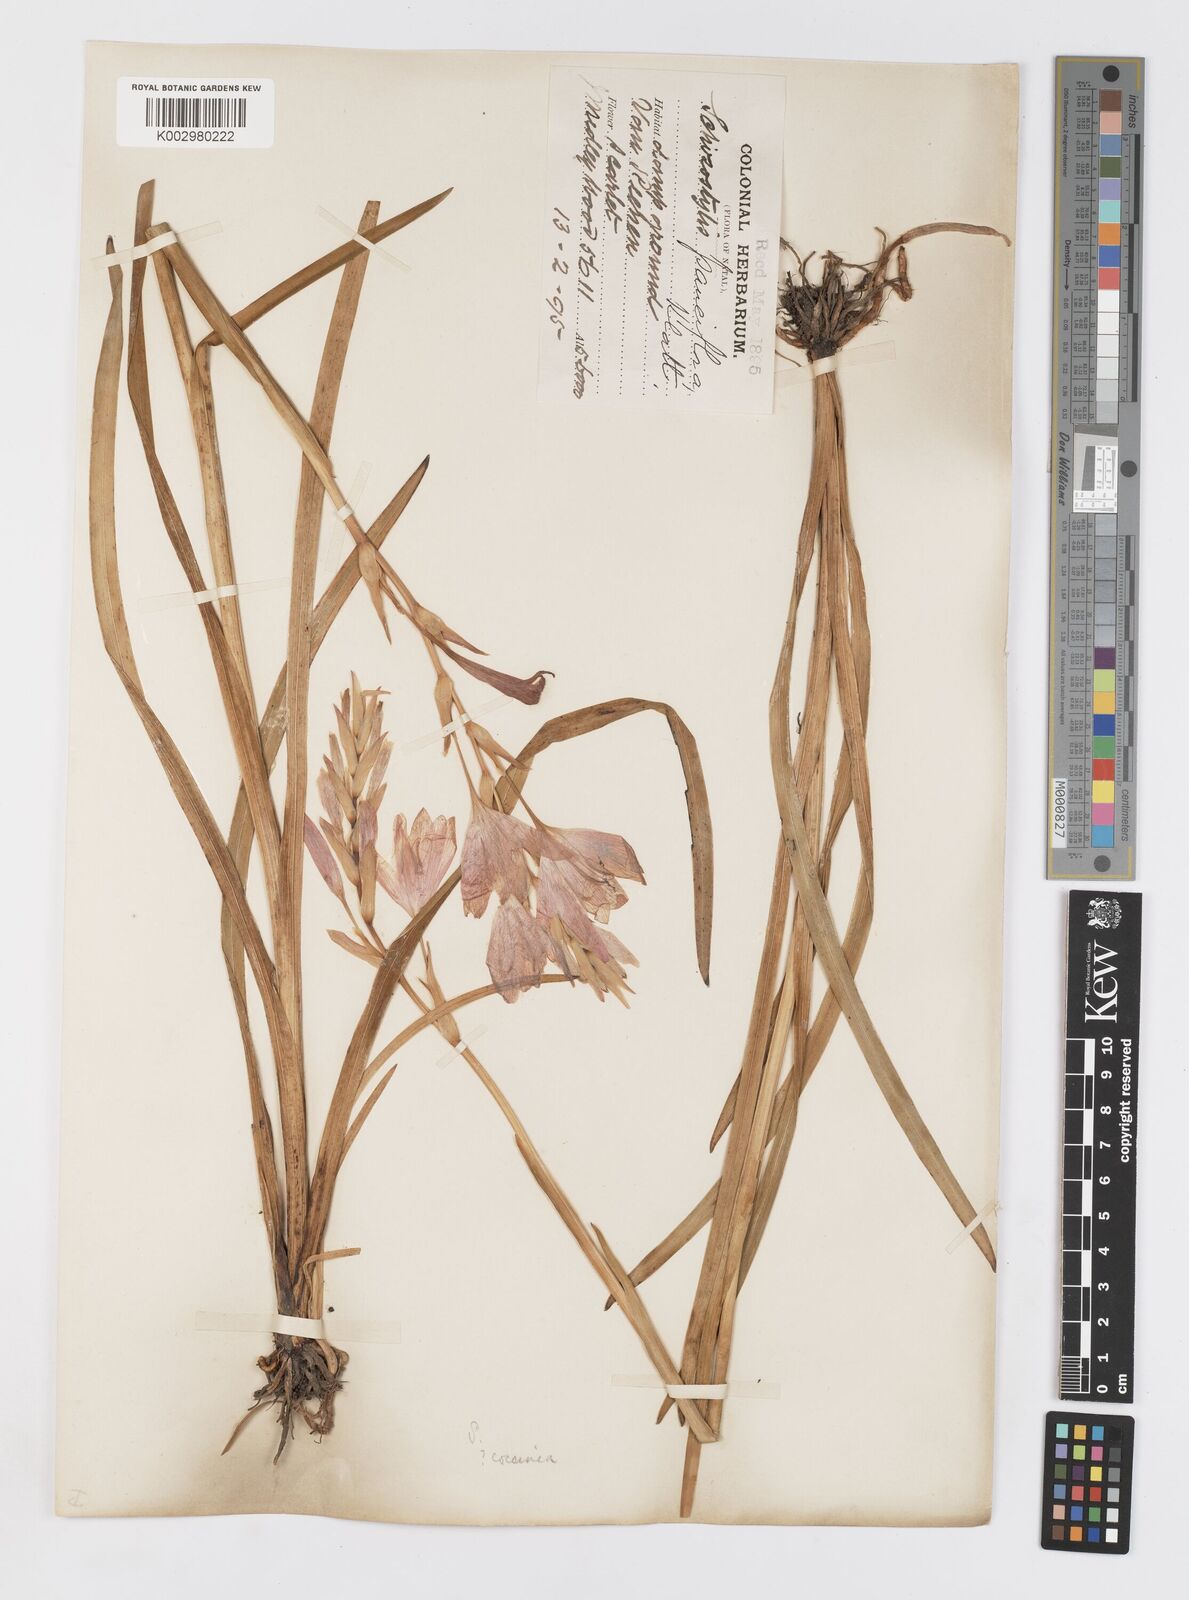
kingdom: Plantae
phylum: Tracheophyta
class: Liliopsida
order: Asparagales
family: Iridaceae
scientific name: Iridaceae
